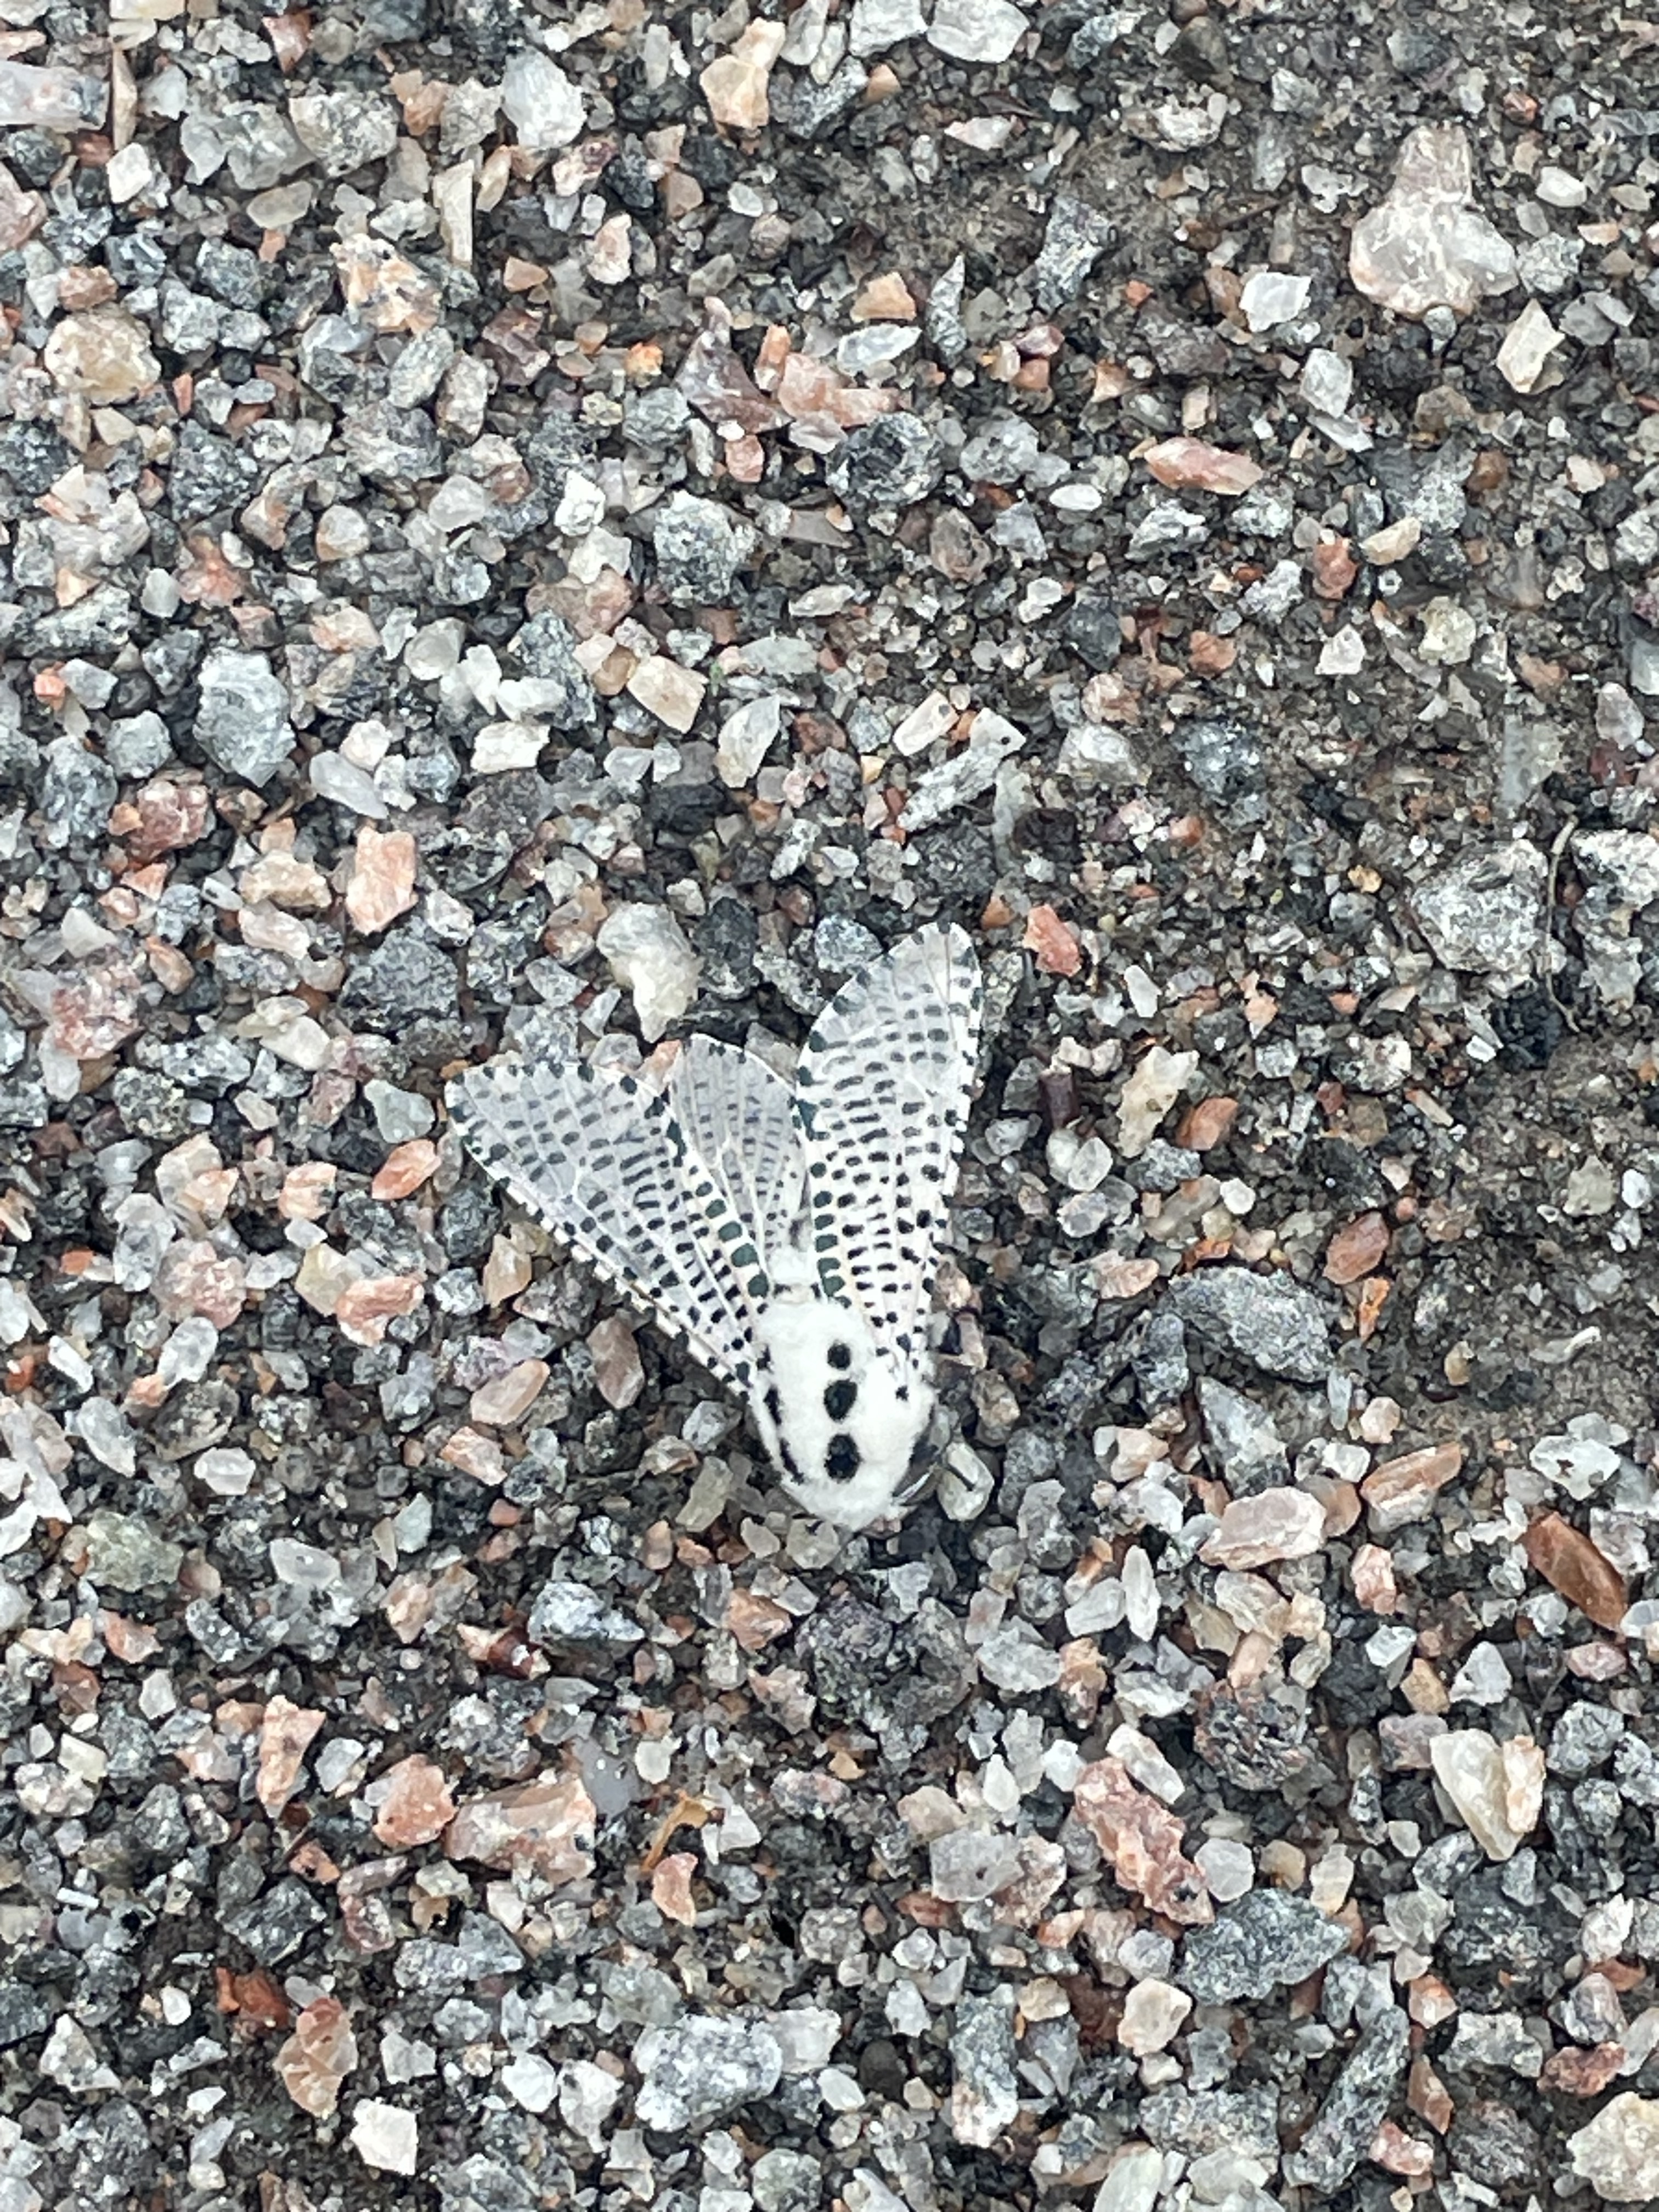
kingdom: Animalia
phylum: Arthropoda
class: Insecta
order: Lepidoptera
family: Cossidae
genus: Zeuzera
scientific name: Zeuzera pyrina
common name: Leopard moth
